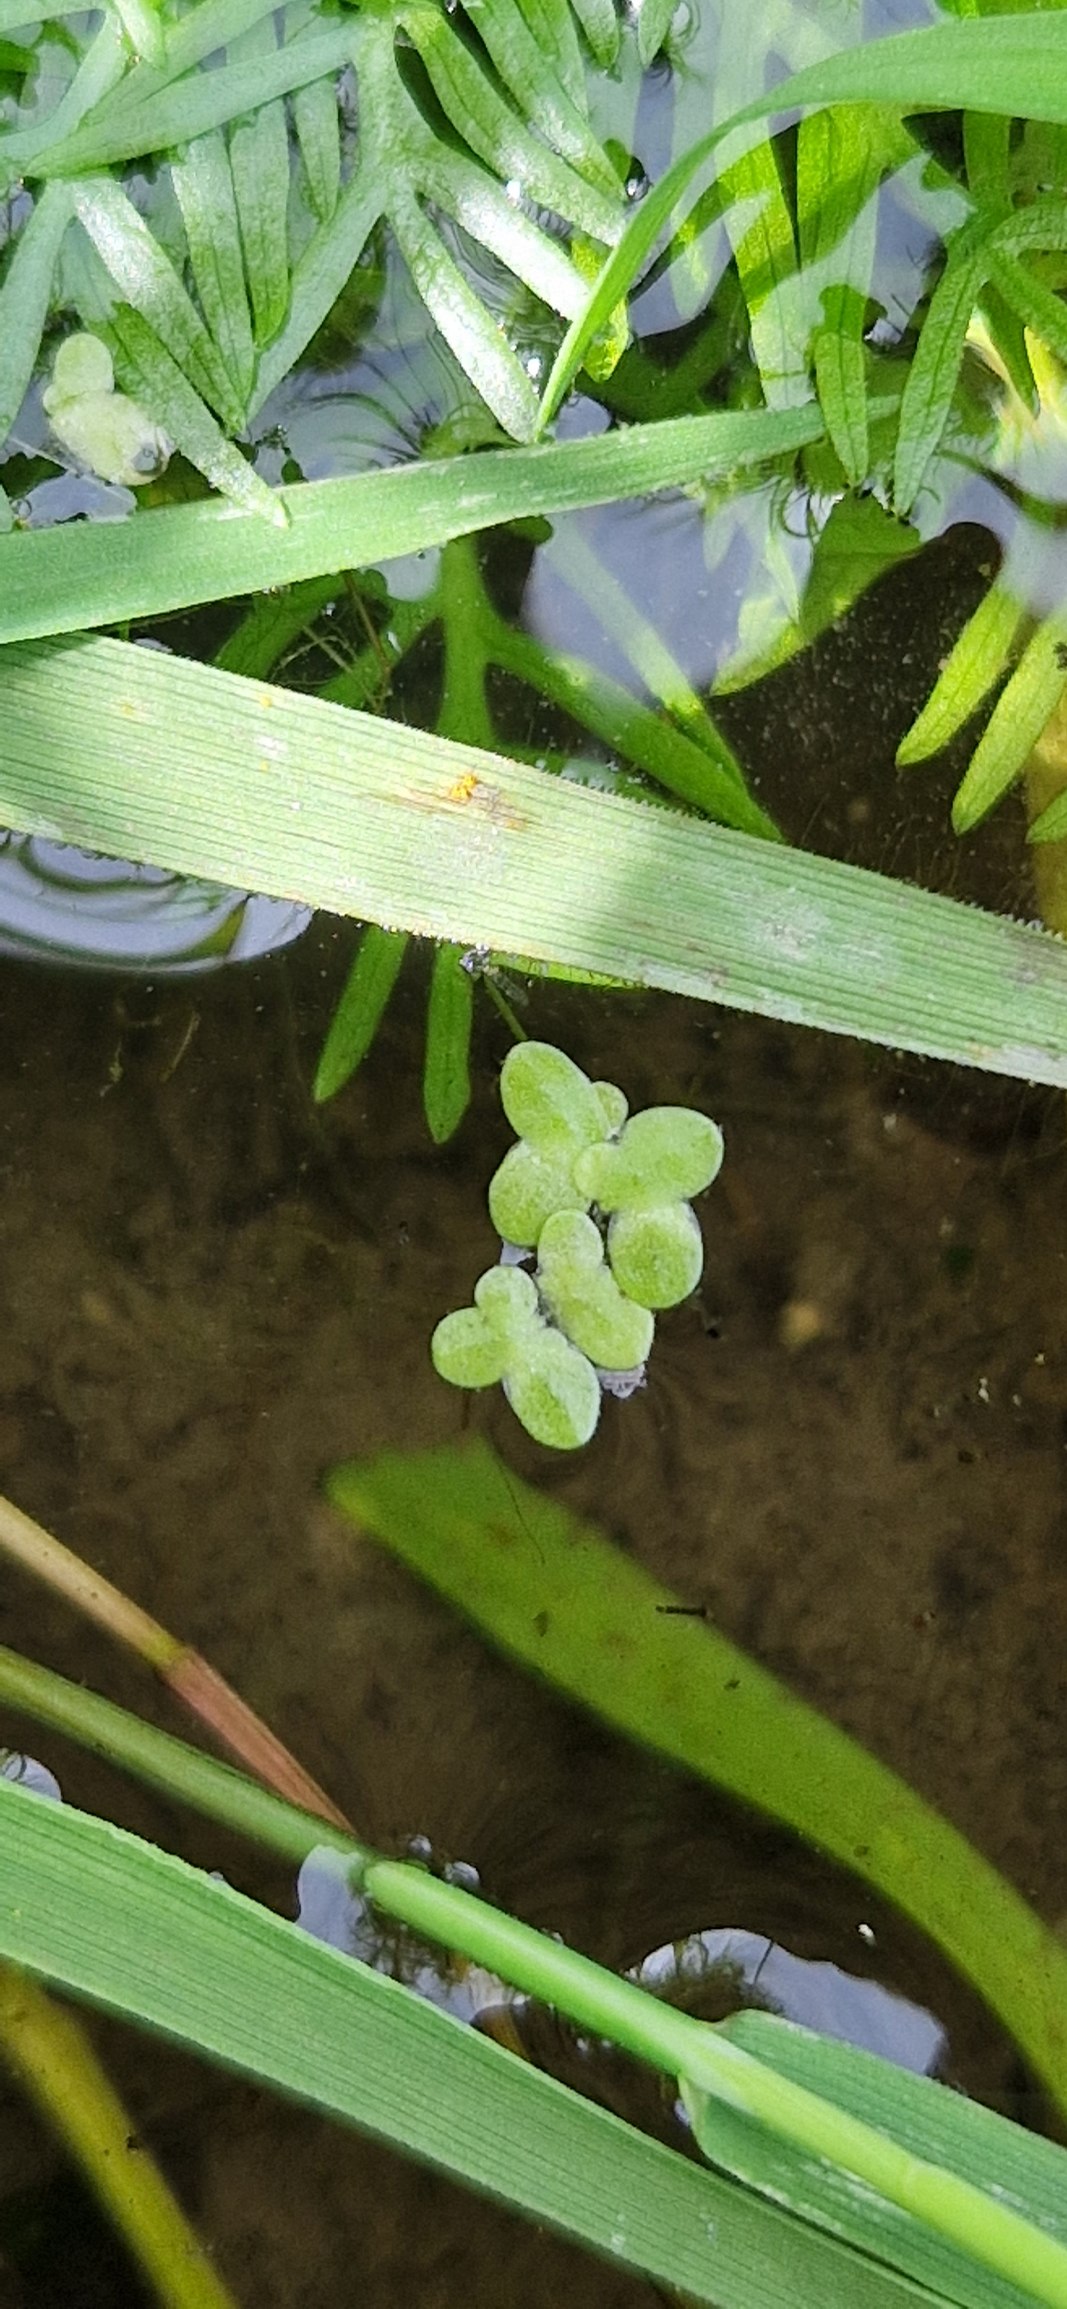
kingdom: Plantae
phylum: Tracheophyta
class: Liliopsida
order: Alismatales
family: Araceae
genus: Lemna
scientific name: Lemna minor
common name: Liden andemad
